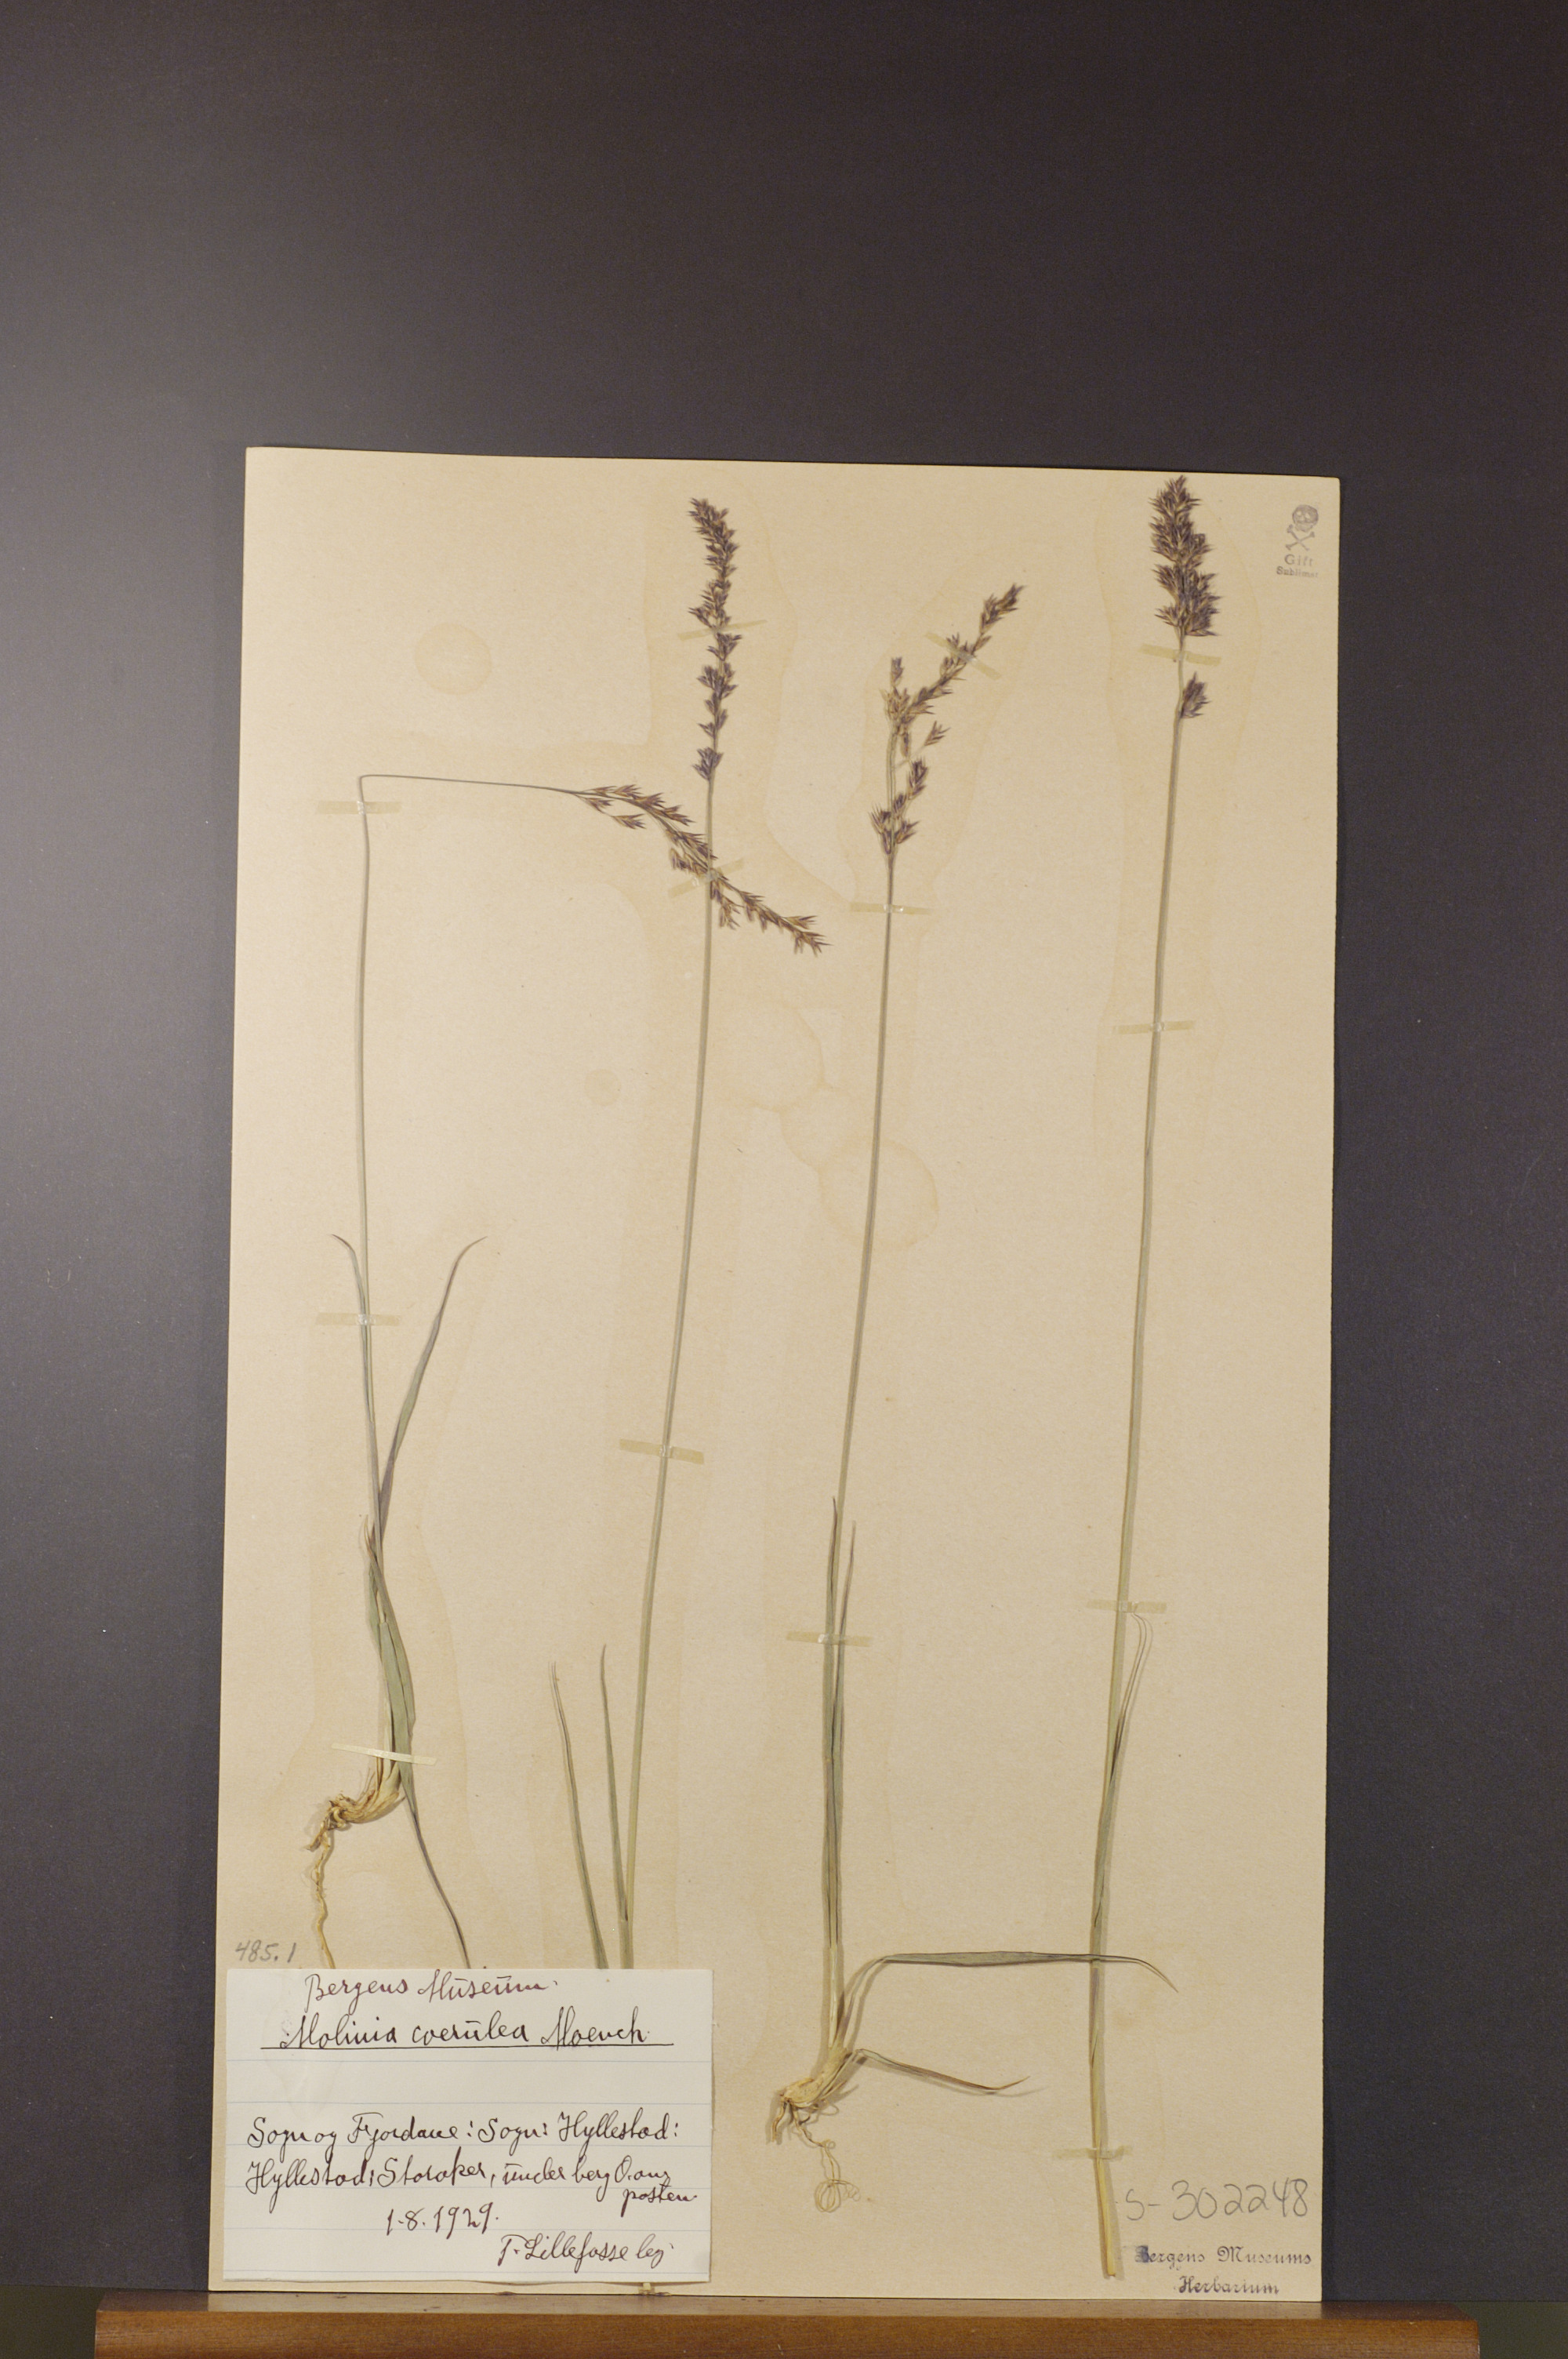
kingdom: Plantae
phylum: Tracheophyta
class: Liliopsida
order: Poales
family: Poaceae
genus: Molinia
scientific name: Molinia caerulea
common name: Purple moor-grass
